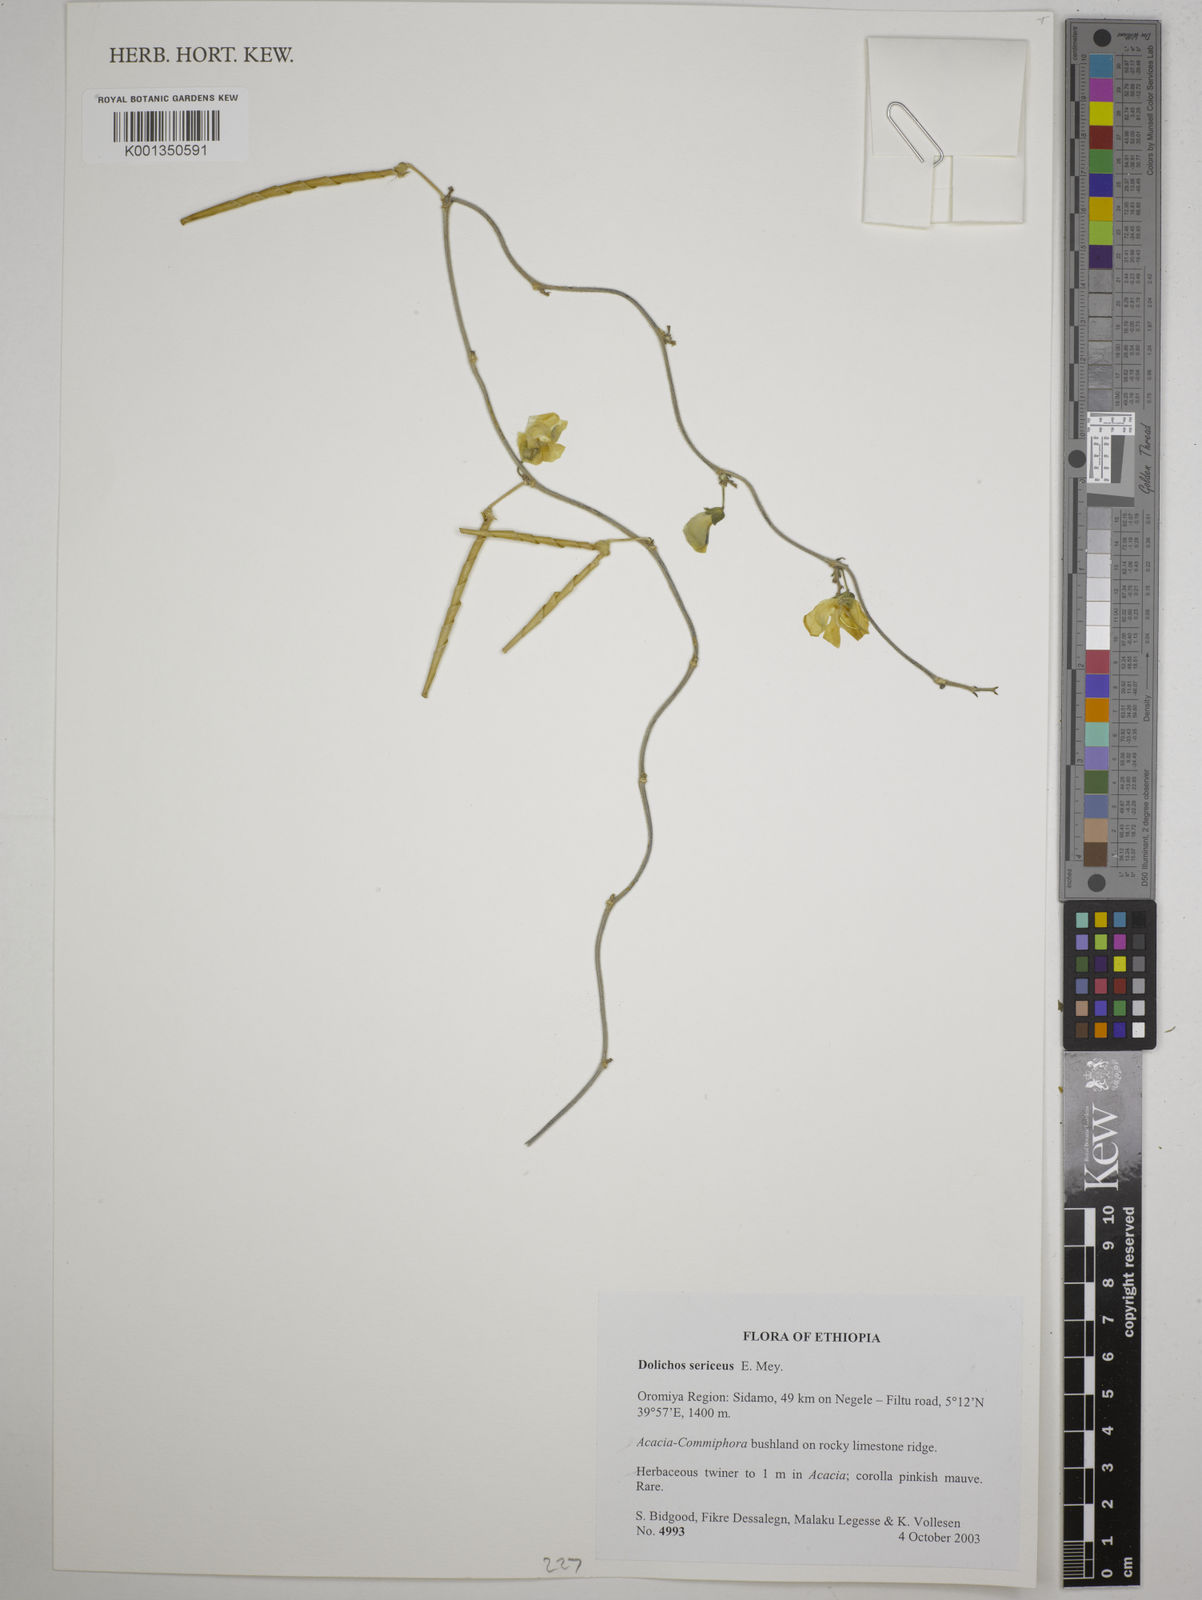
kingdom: Plantae
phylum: Tracheophyta
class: Magnoliopsida
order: Fabales
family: Fabaceae
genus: Dolichos
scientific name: Dolichos sericeus
